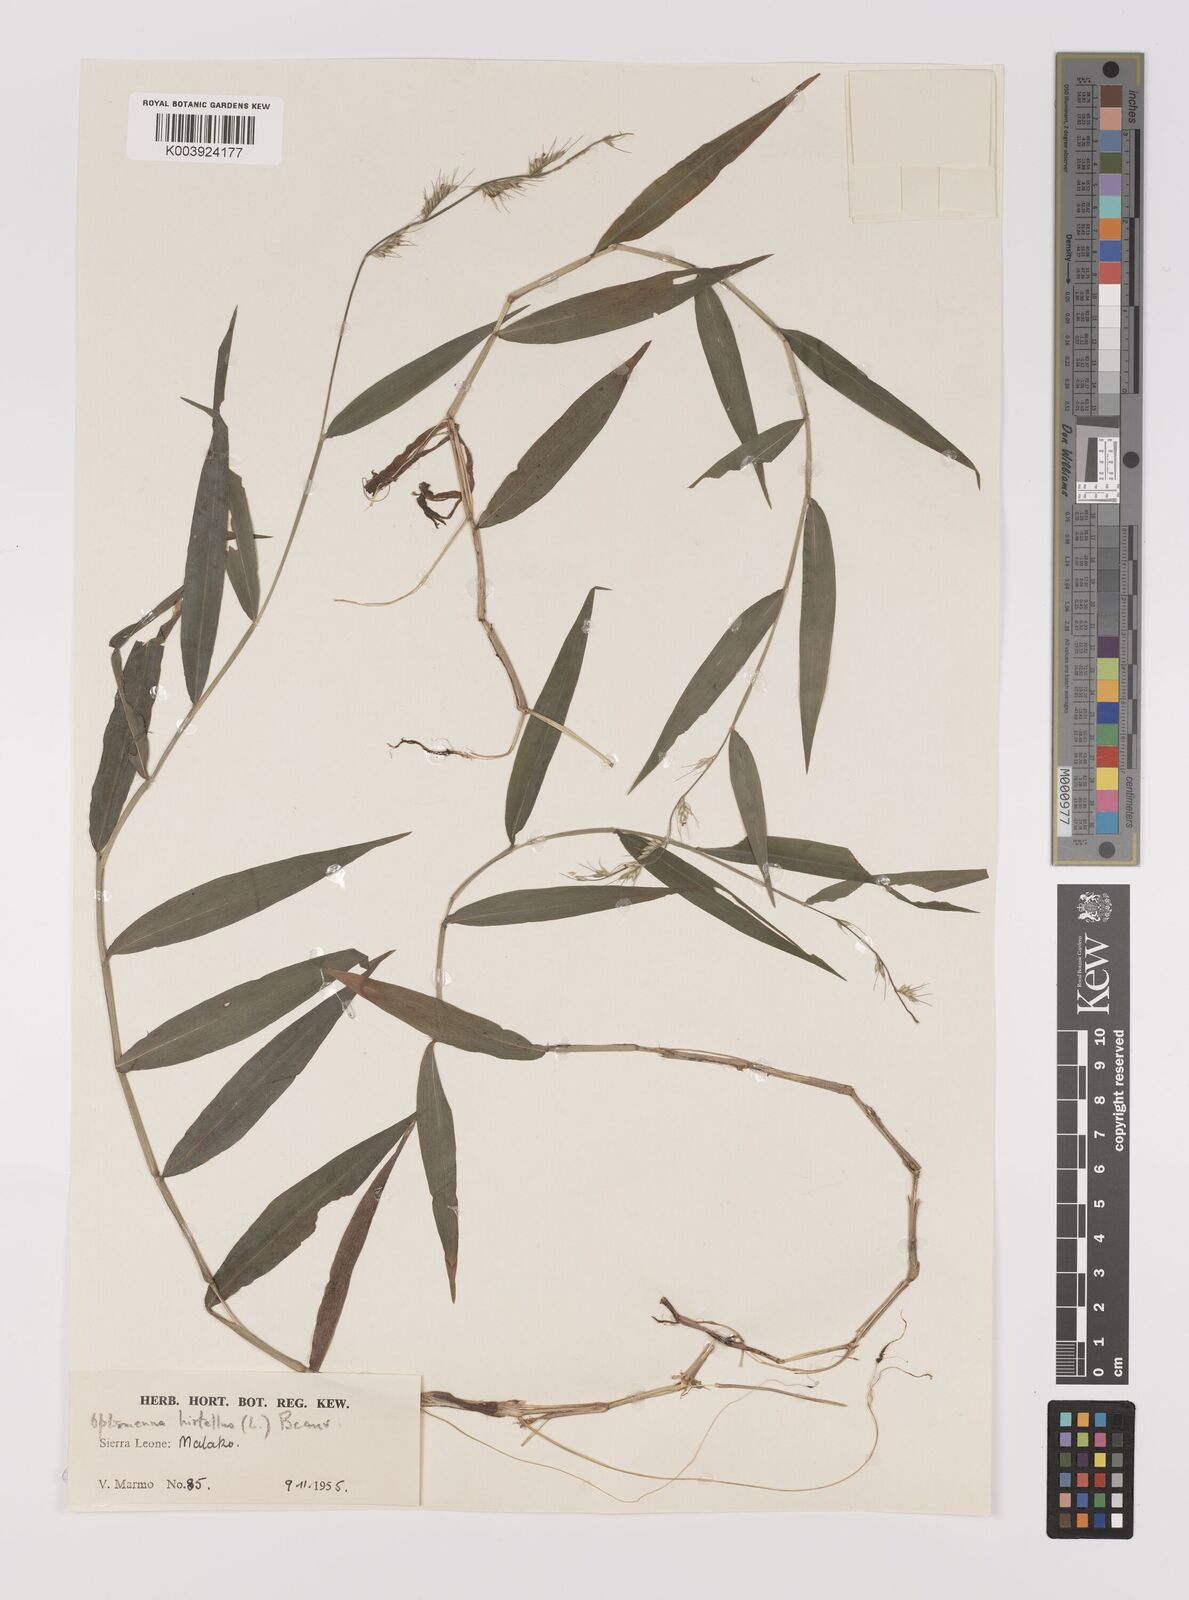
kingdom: Plantae
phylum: Tracheophyta
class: Liliopsida
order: Poales
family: Poaceae
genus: Oplismenus
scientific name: Oplismenus hirtellus
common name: Basketgrass
